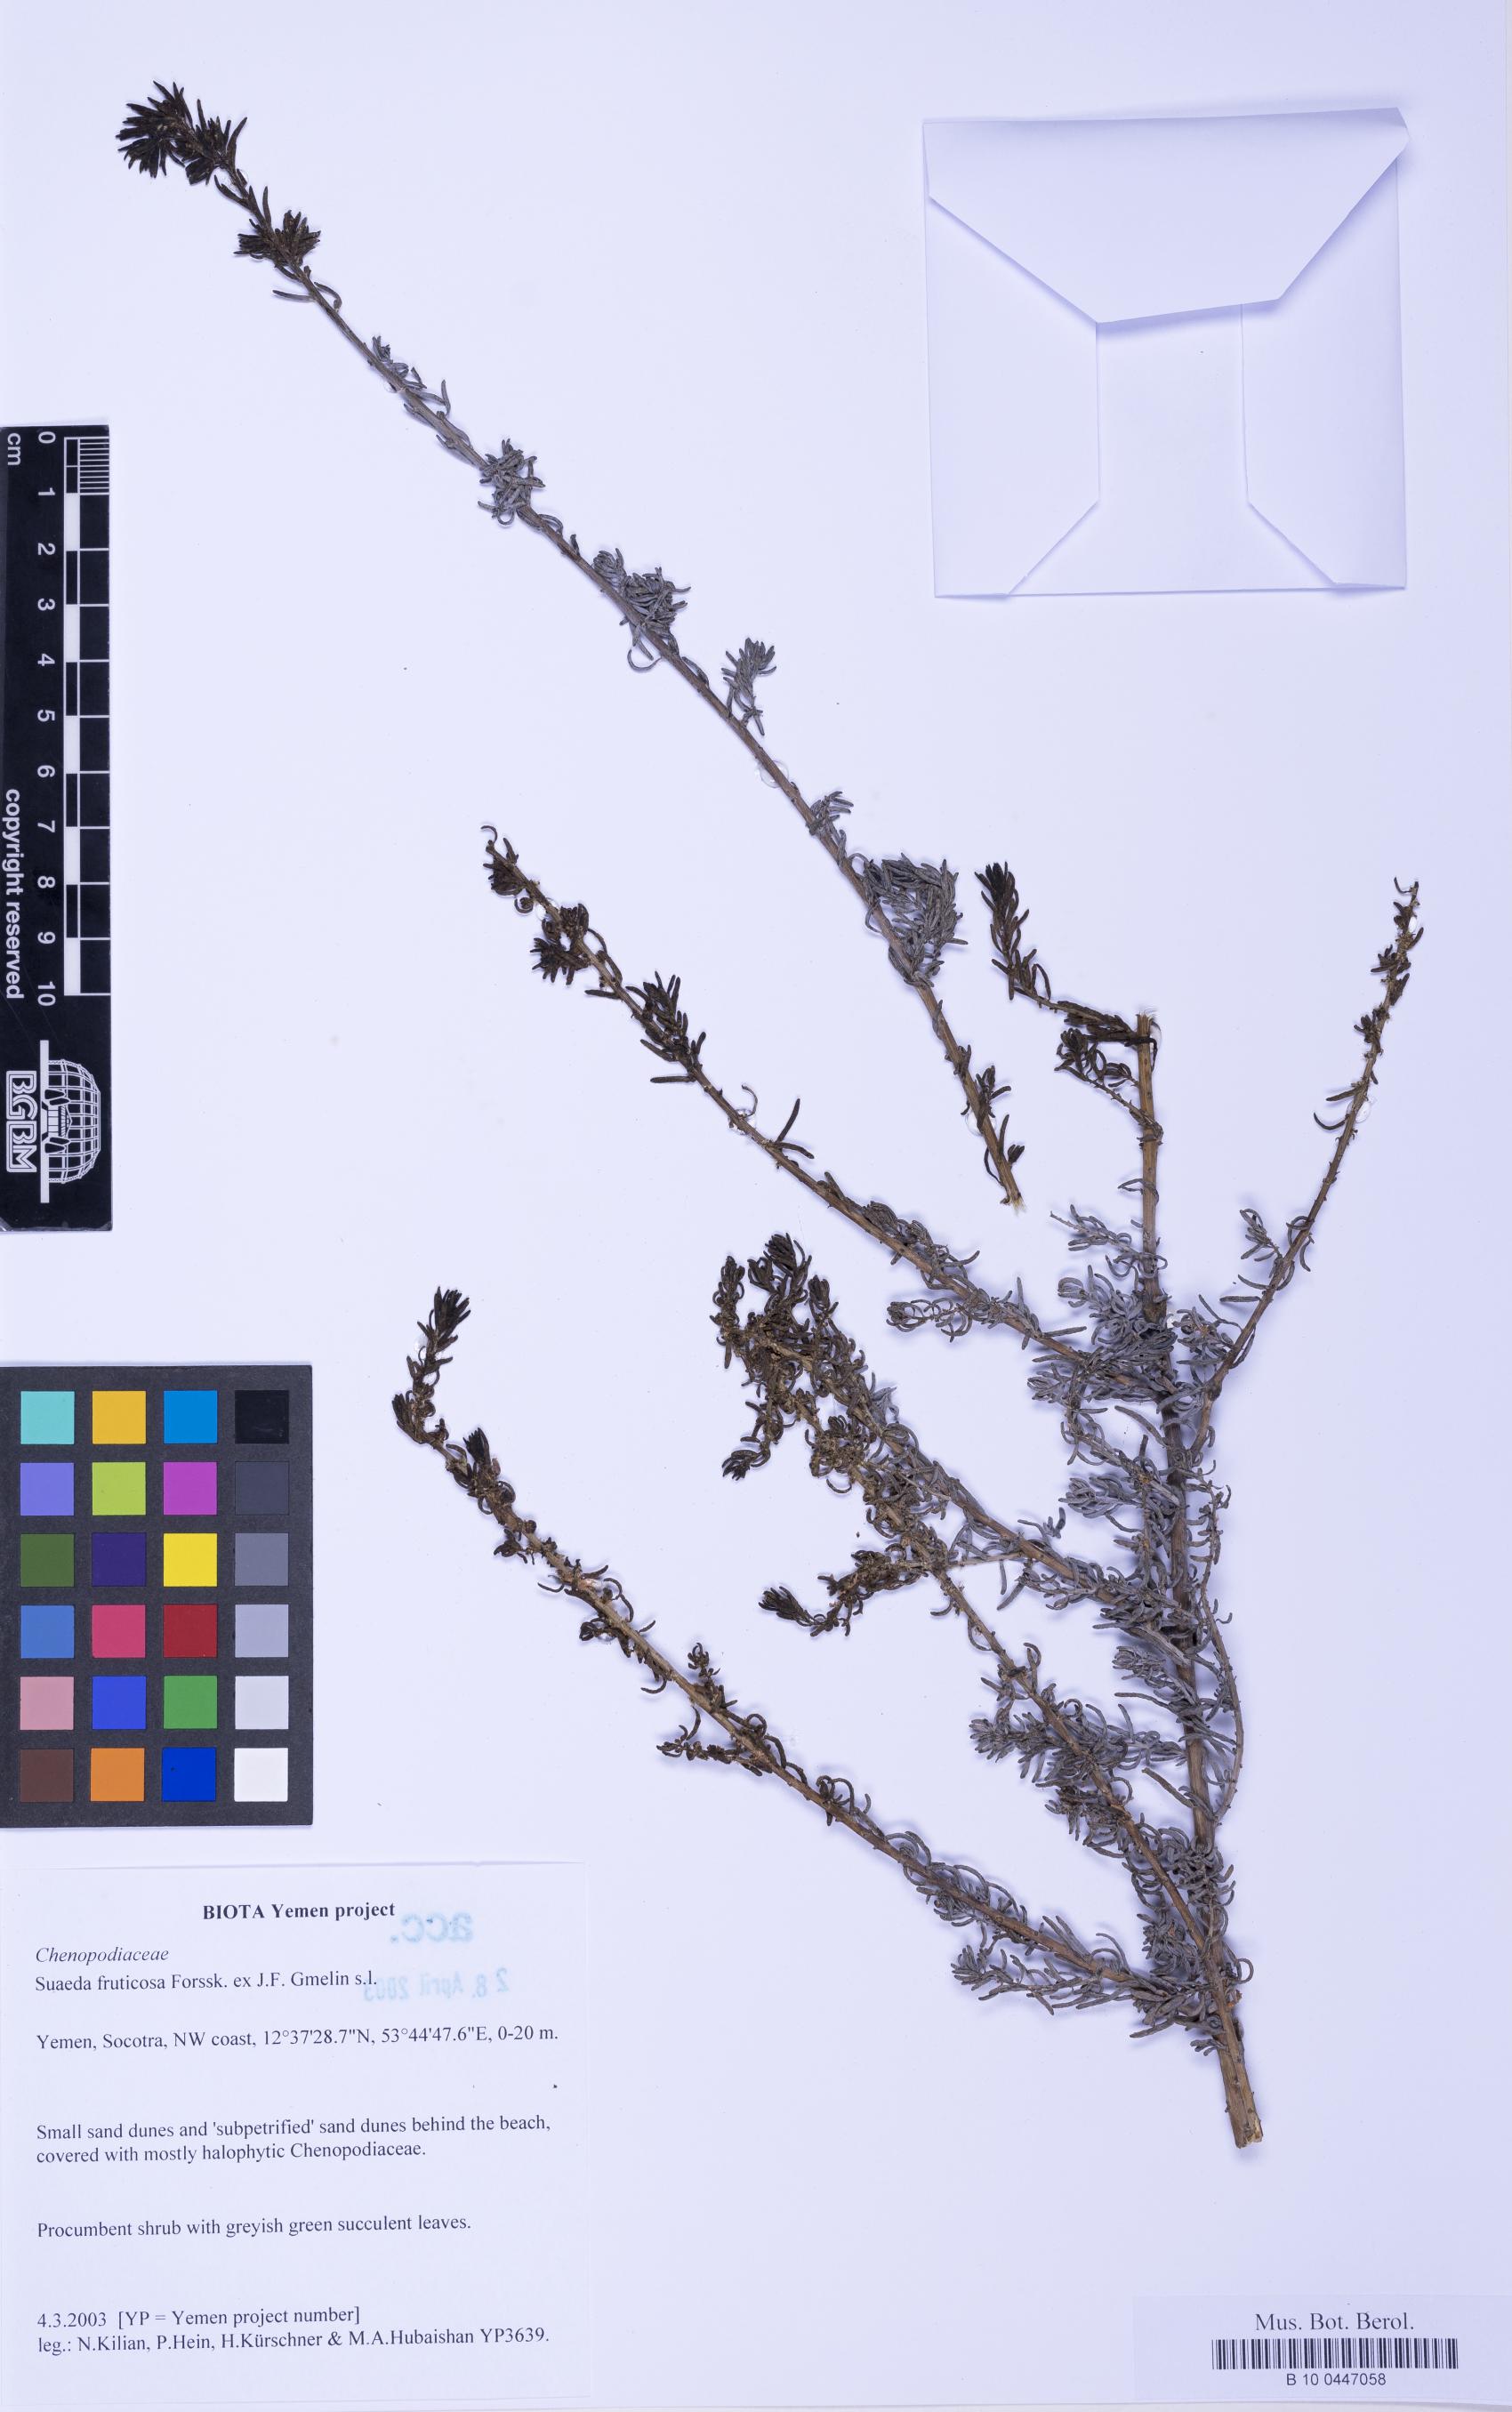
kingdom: Plantae
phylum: Tracheophyta
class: Magnoliopsida
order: Caryophyllales
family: Amaranthaceae
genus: Suaeda
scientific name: Suaeda vermiculata
